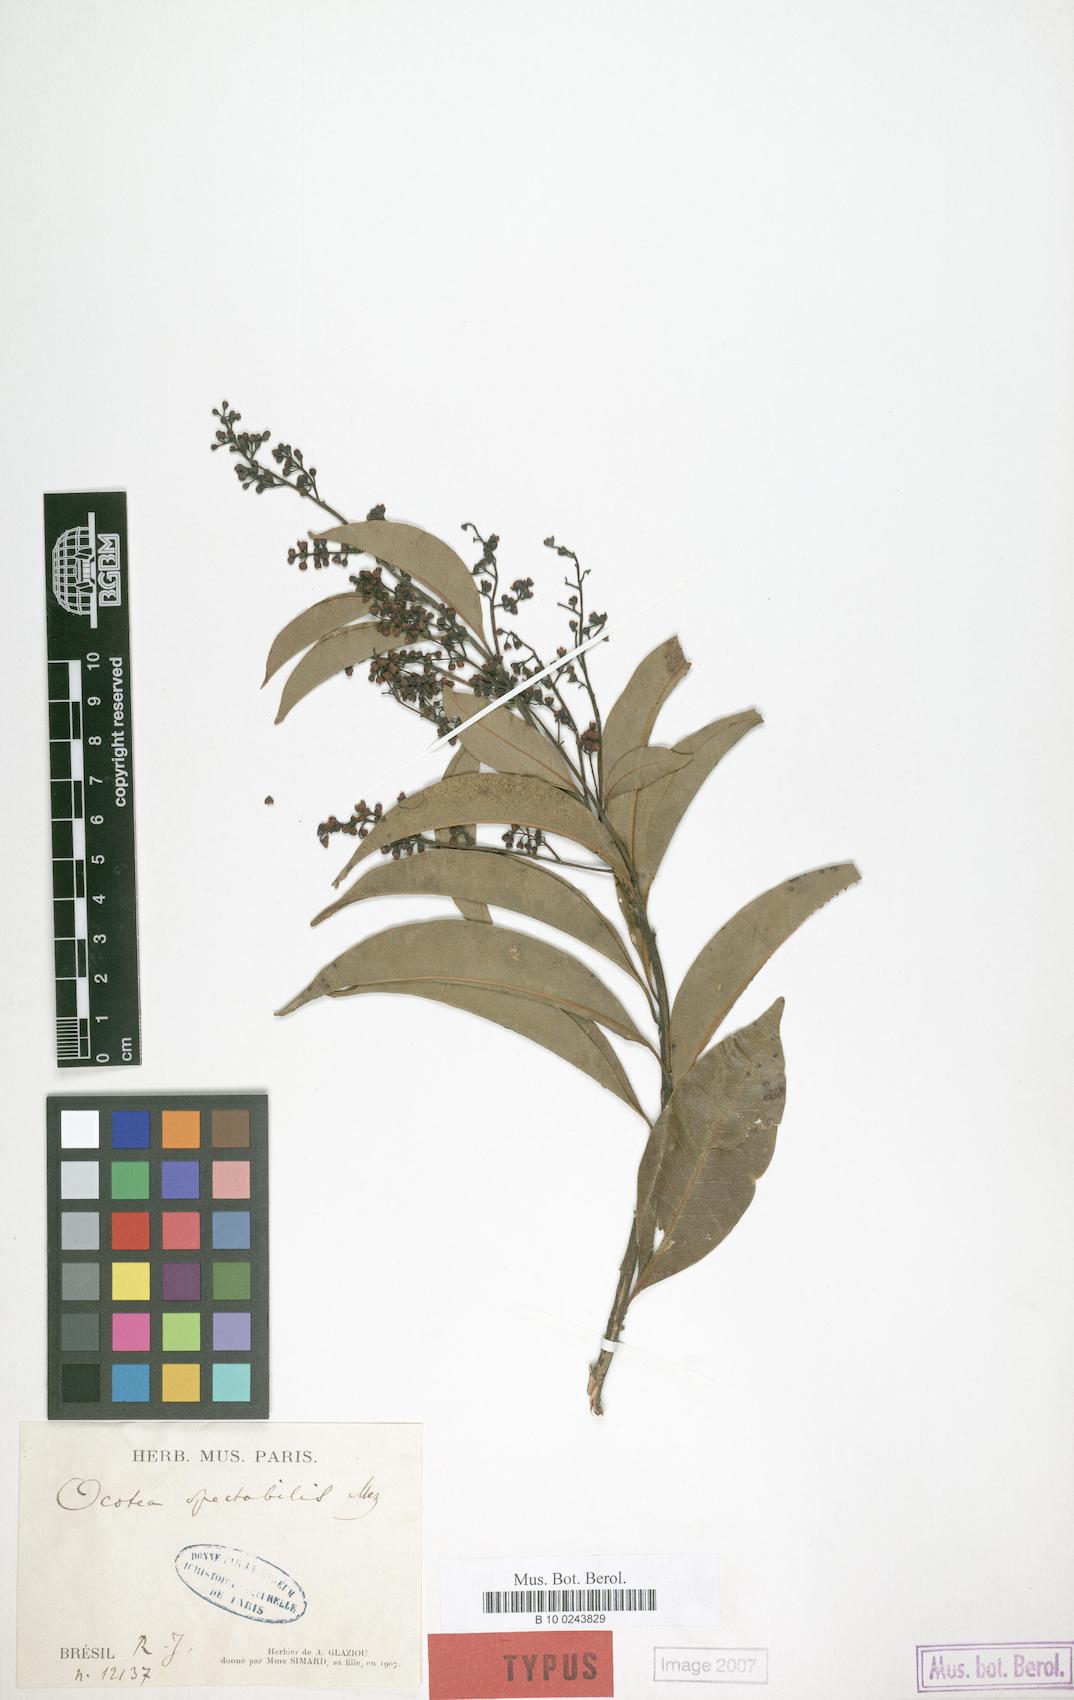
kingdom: Plantae
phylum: Tracheophyta
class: Magnoliopsida
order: Laurales
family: Lauraceae
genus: Ocotea
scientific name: Ocotea spectabilis
